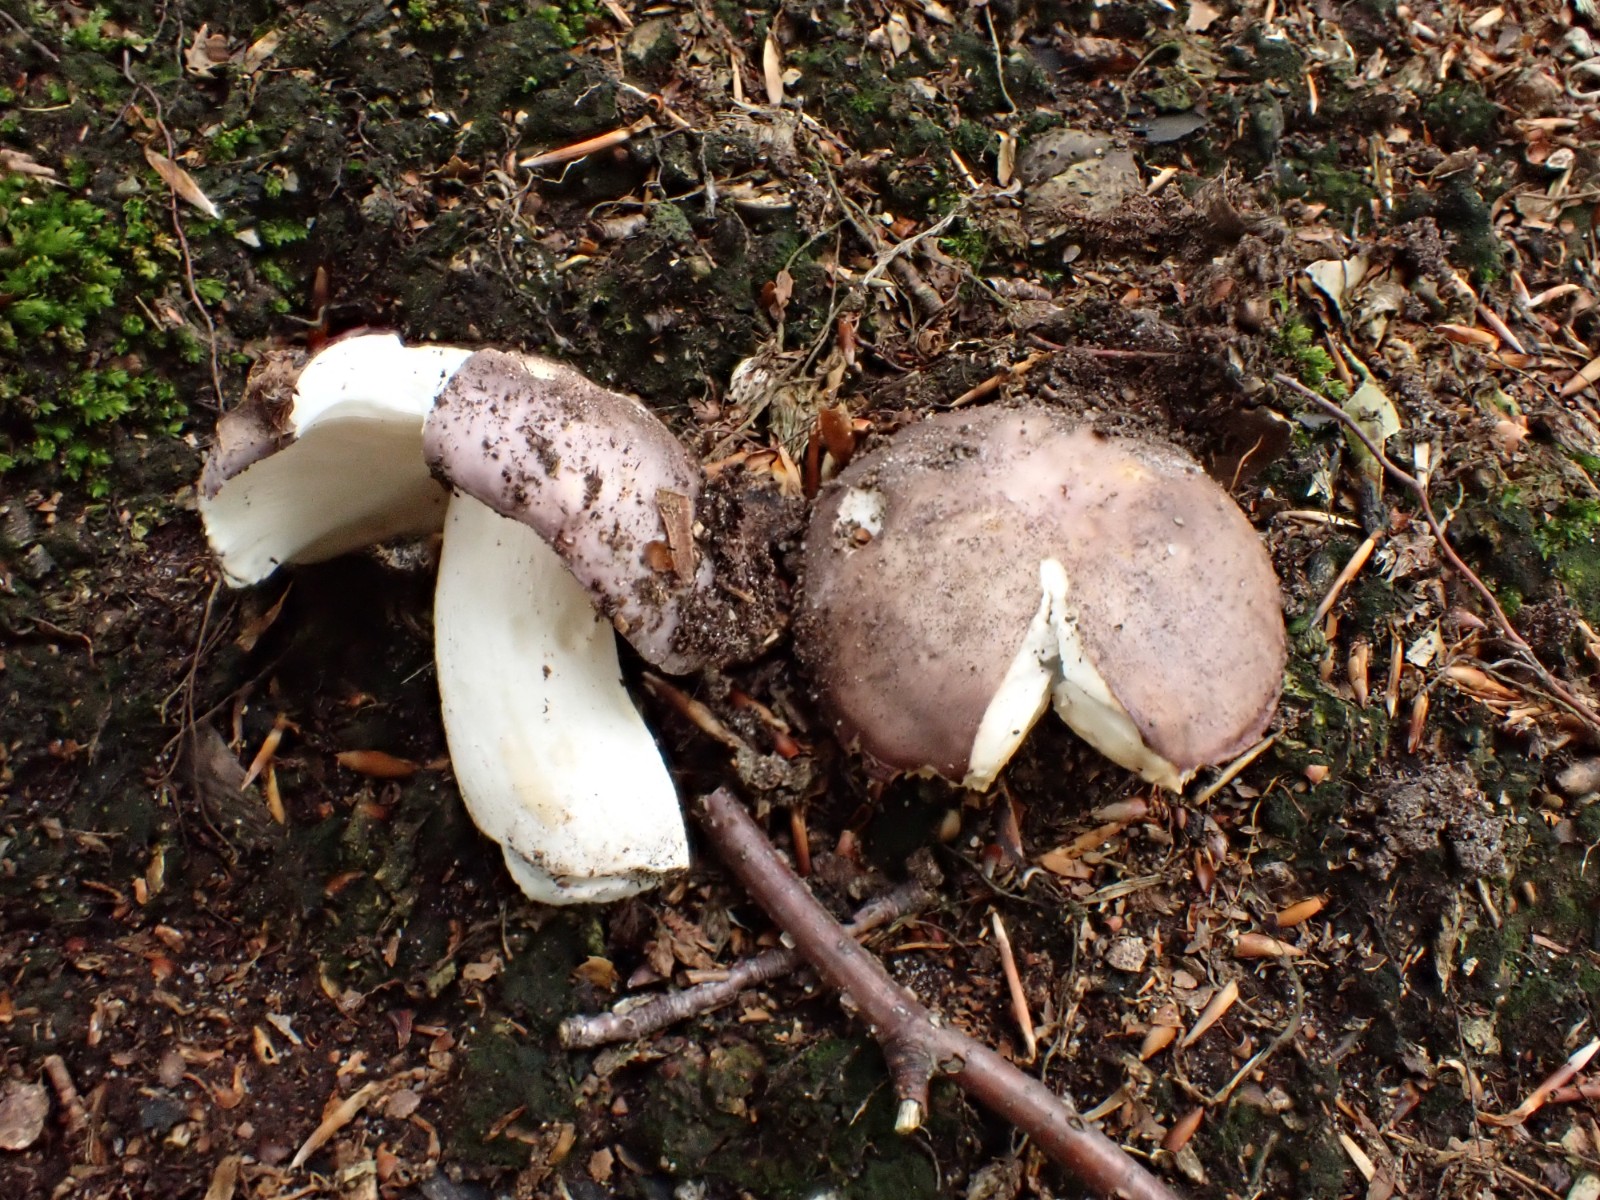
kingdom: Fungi
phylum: Basidiomycota
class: Agaricomycetes
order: Russulales
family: Russulaceae
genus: Russula
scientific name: Russula cyanoxantha
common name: broget skørhat
